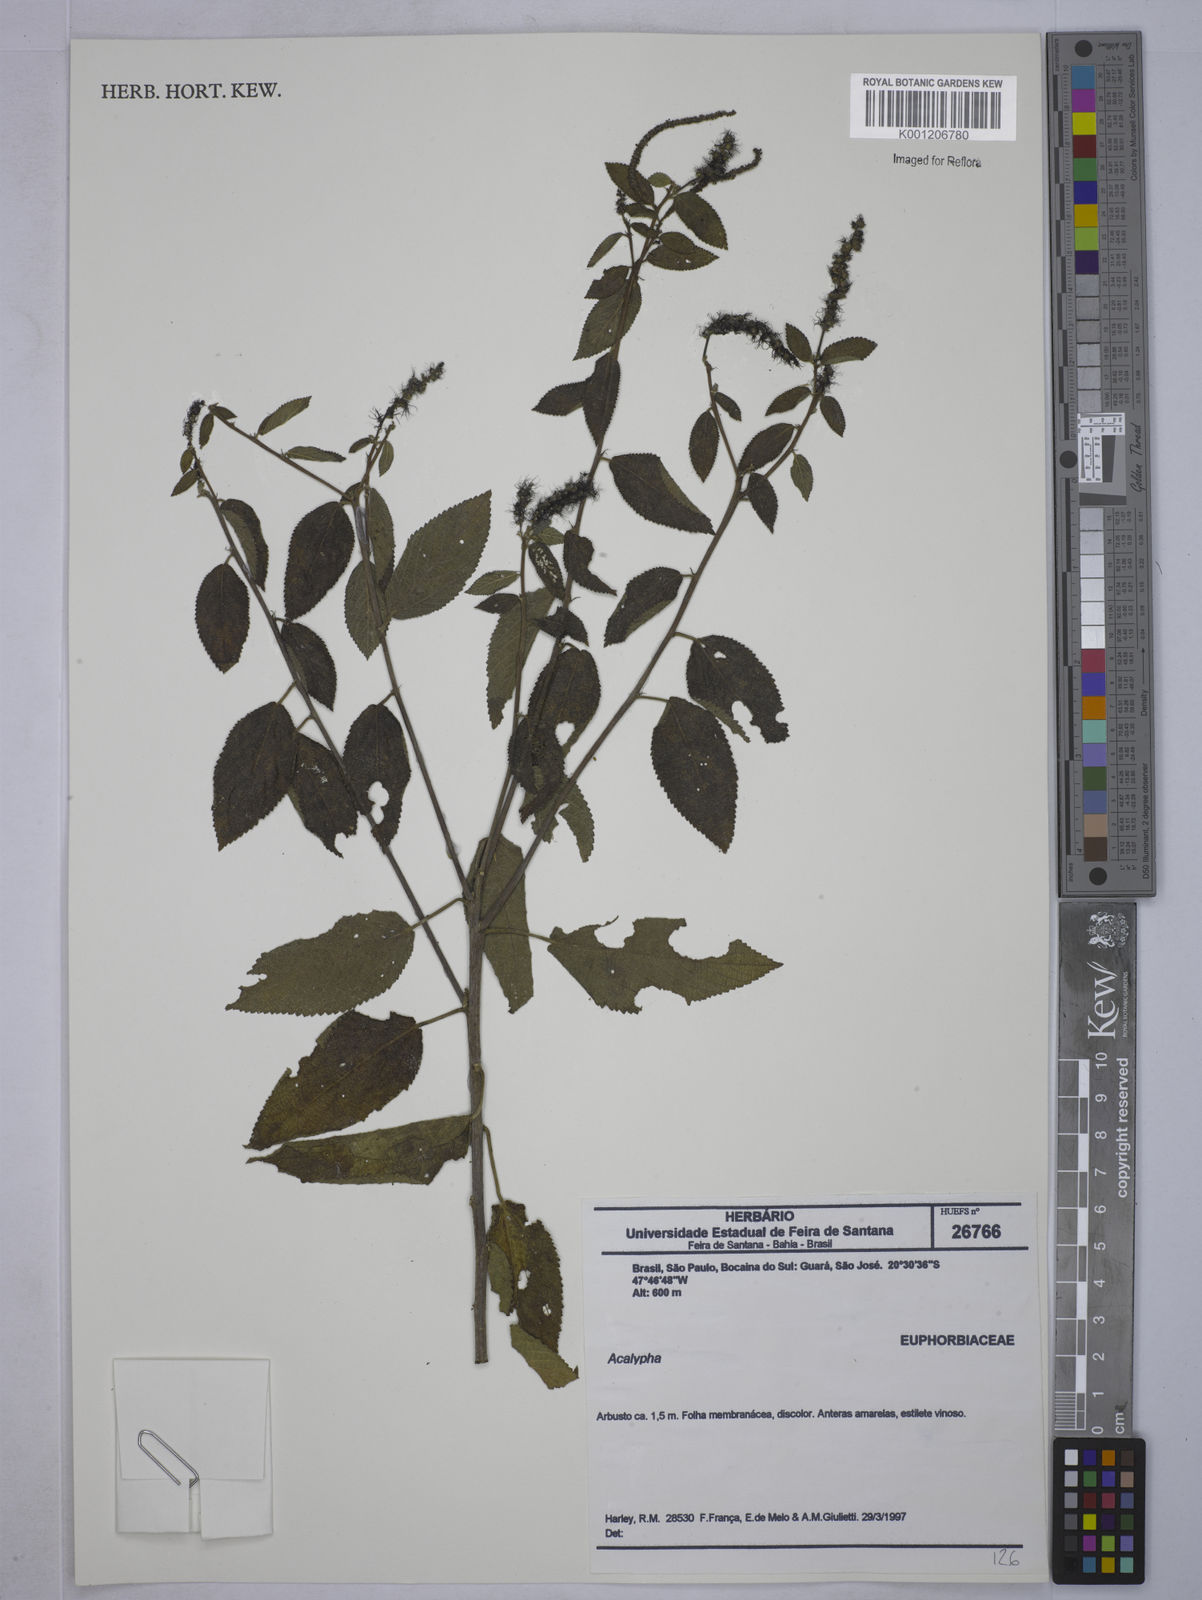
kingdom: Plantae
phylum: Tracheophyta
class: Magnoliopsida
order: Malpighiales
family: Euphorbiaceae
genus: Acalypha
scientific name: Acalypha
